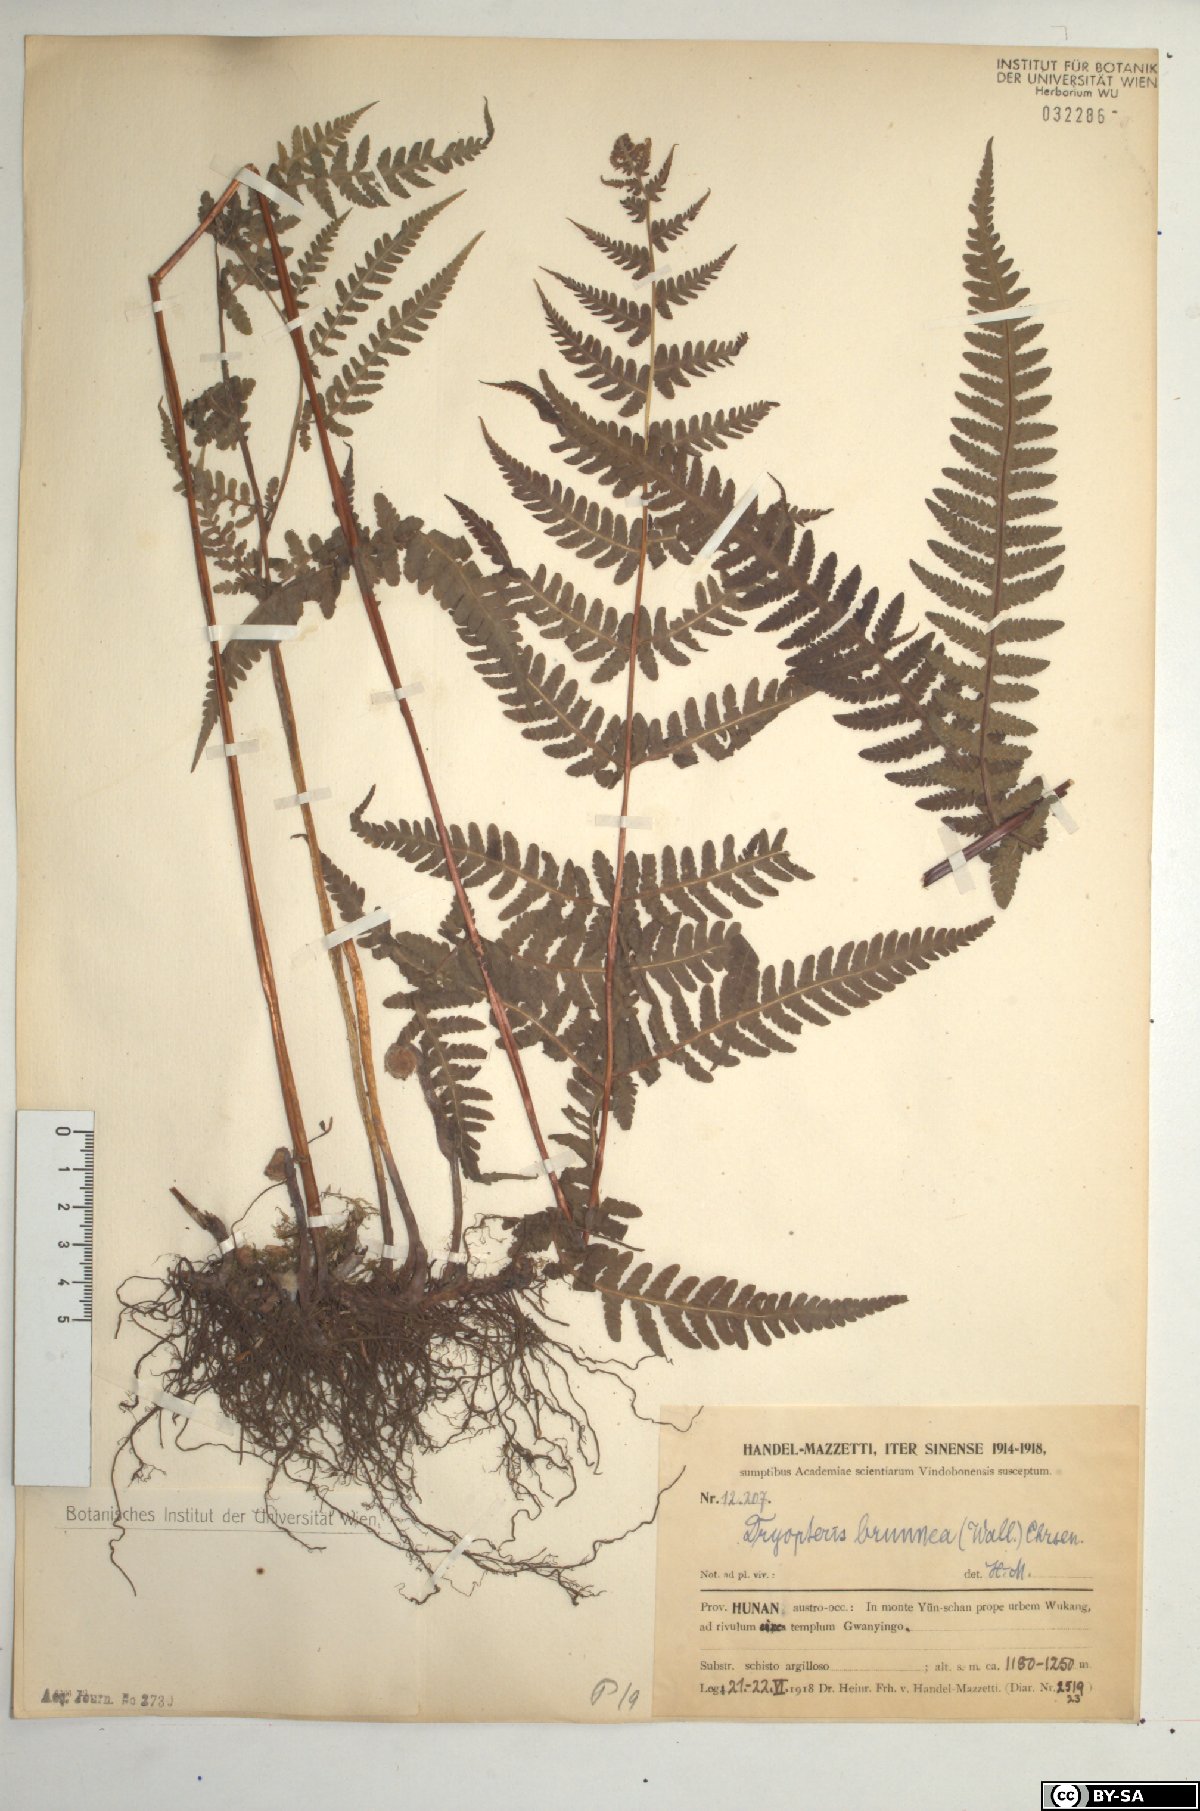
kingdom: Plantae
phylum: Tracheophyta
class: Polypodiopsida
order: Polypodiales
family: Thelypteridaceae
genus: Pseudophegopteris
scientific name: Pseudophegopteris pyrrhorachis
